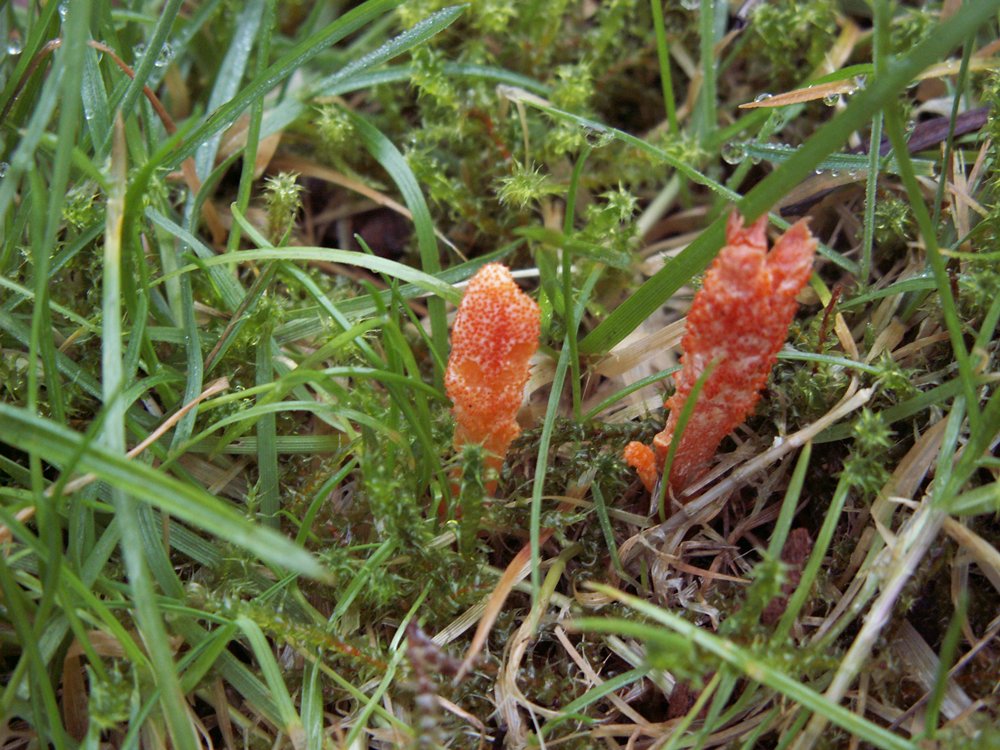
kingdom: Fungi
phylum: Ascomycota
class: Sordariomycetes
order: Hypocreales
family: Cordycipitaceae
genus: Cordyceps
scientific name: Cordyceps militaris
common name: puppe-snyltekølle
